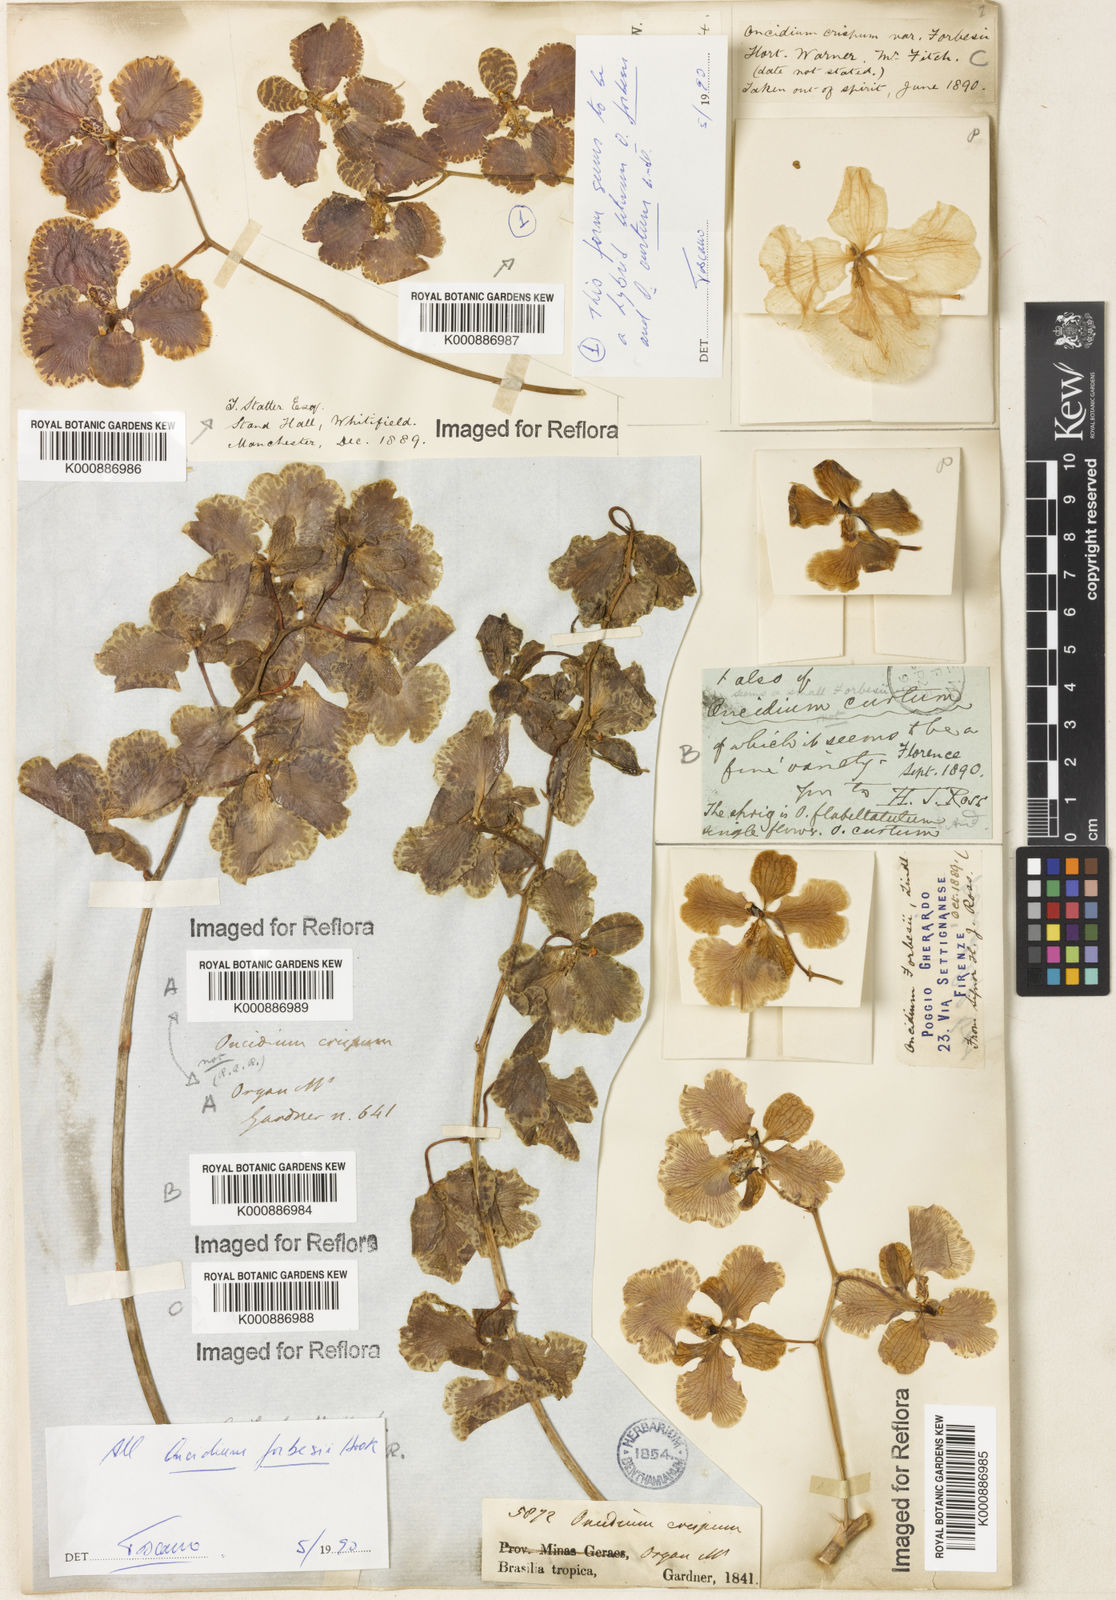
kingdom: Plantae
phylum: Tracheophyta
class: Liliopsida
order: Asparagales
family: Orchidaceae
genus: Gomesa
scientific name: Gomesa forbesii
